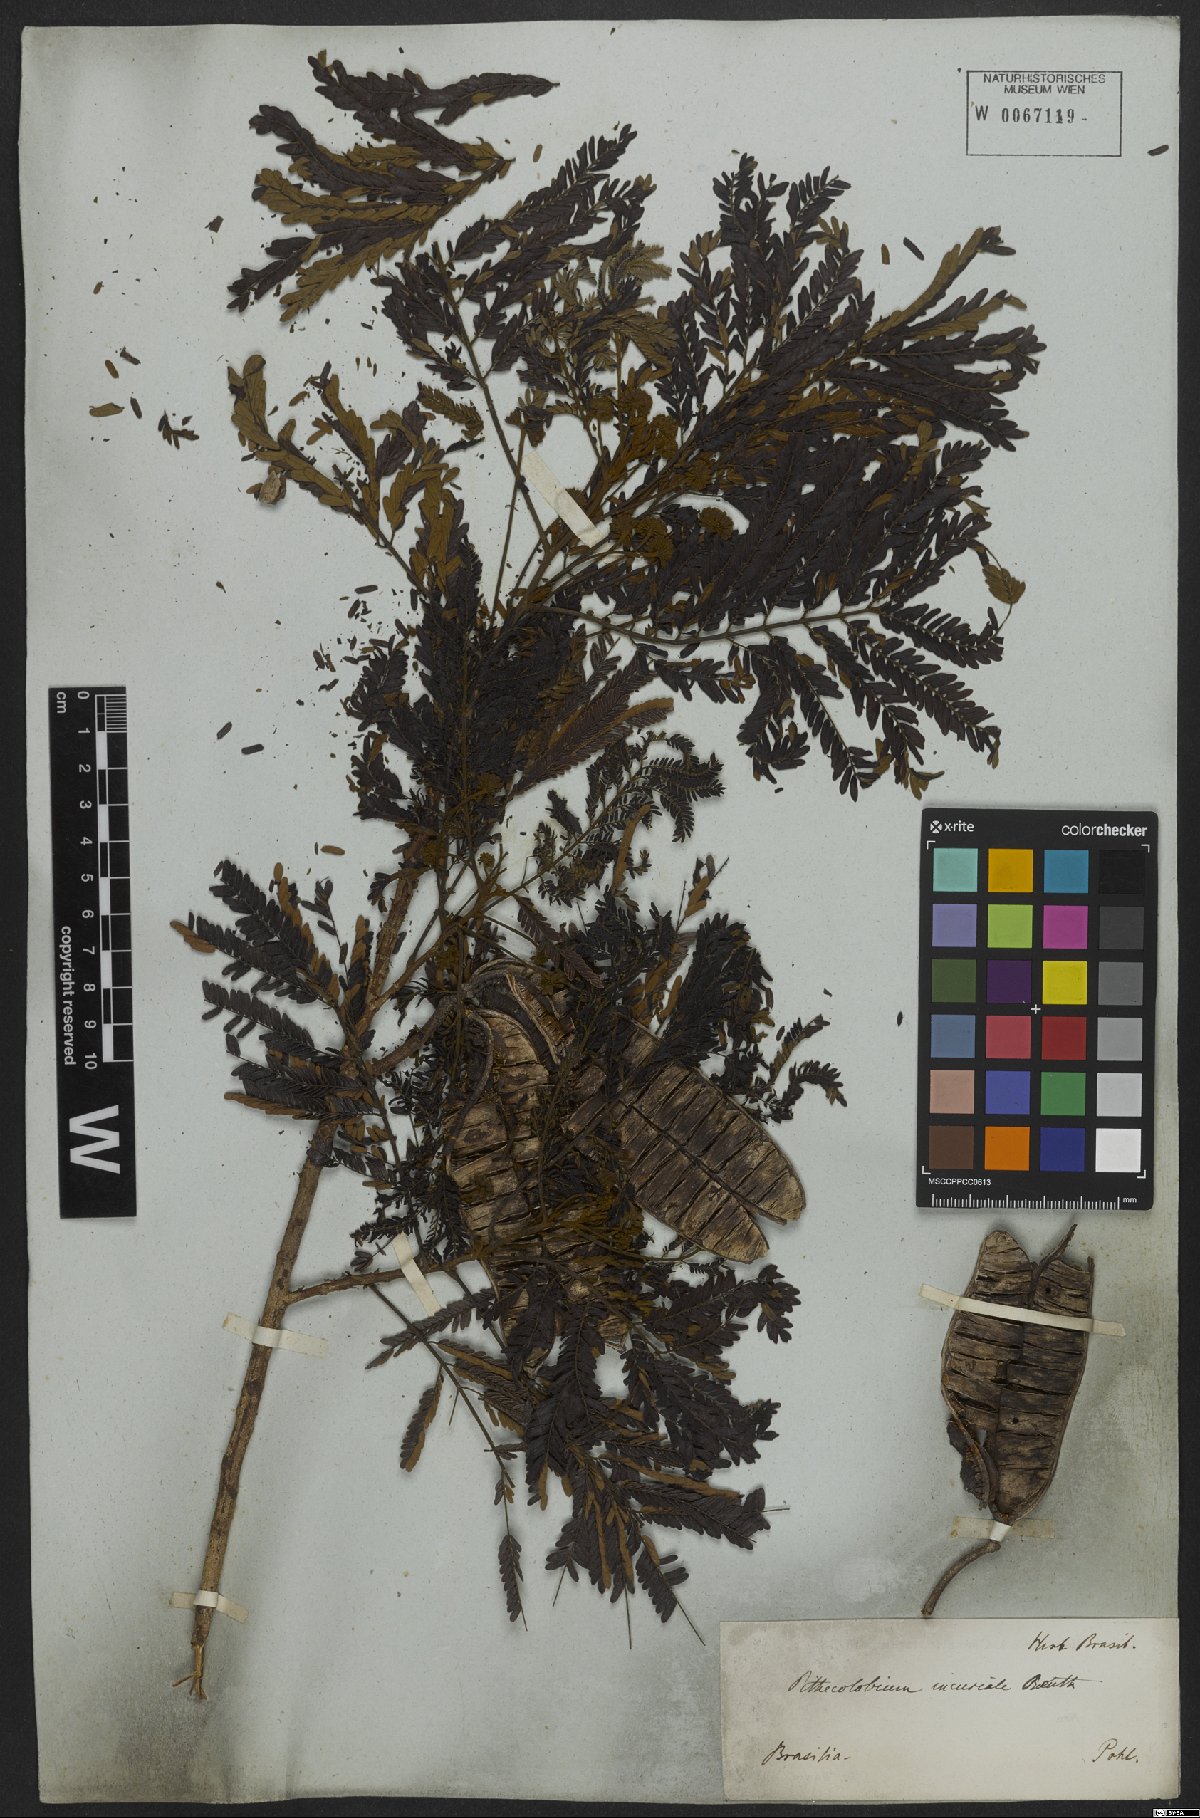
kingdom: Plantae
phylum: Tracheophyta
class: Magnoliopsida
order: Fabales
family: Fabaceae
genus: Leucochloron
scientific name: Leucochloron incuriale
